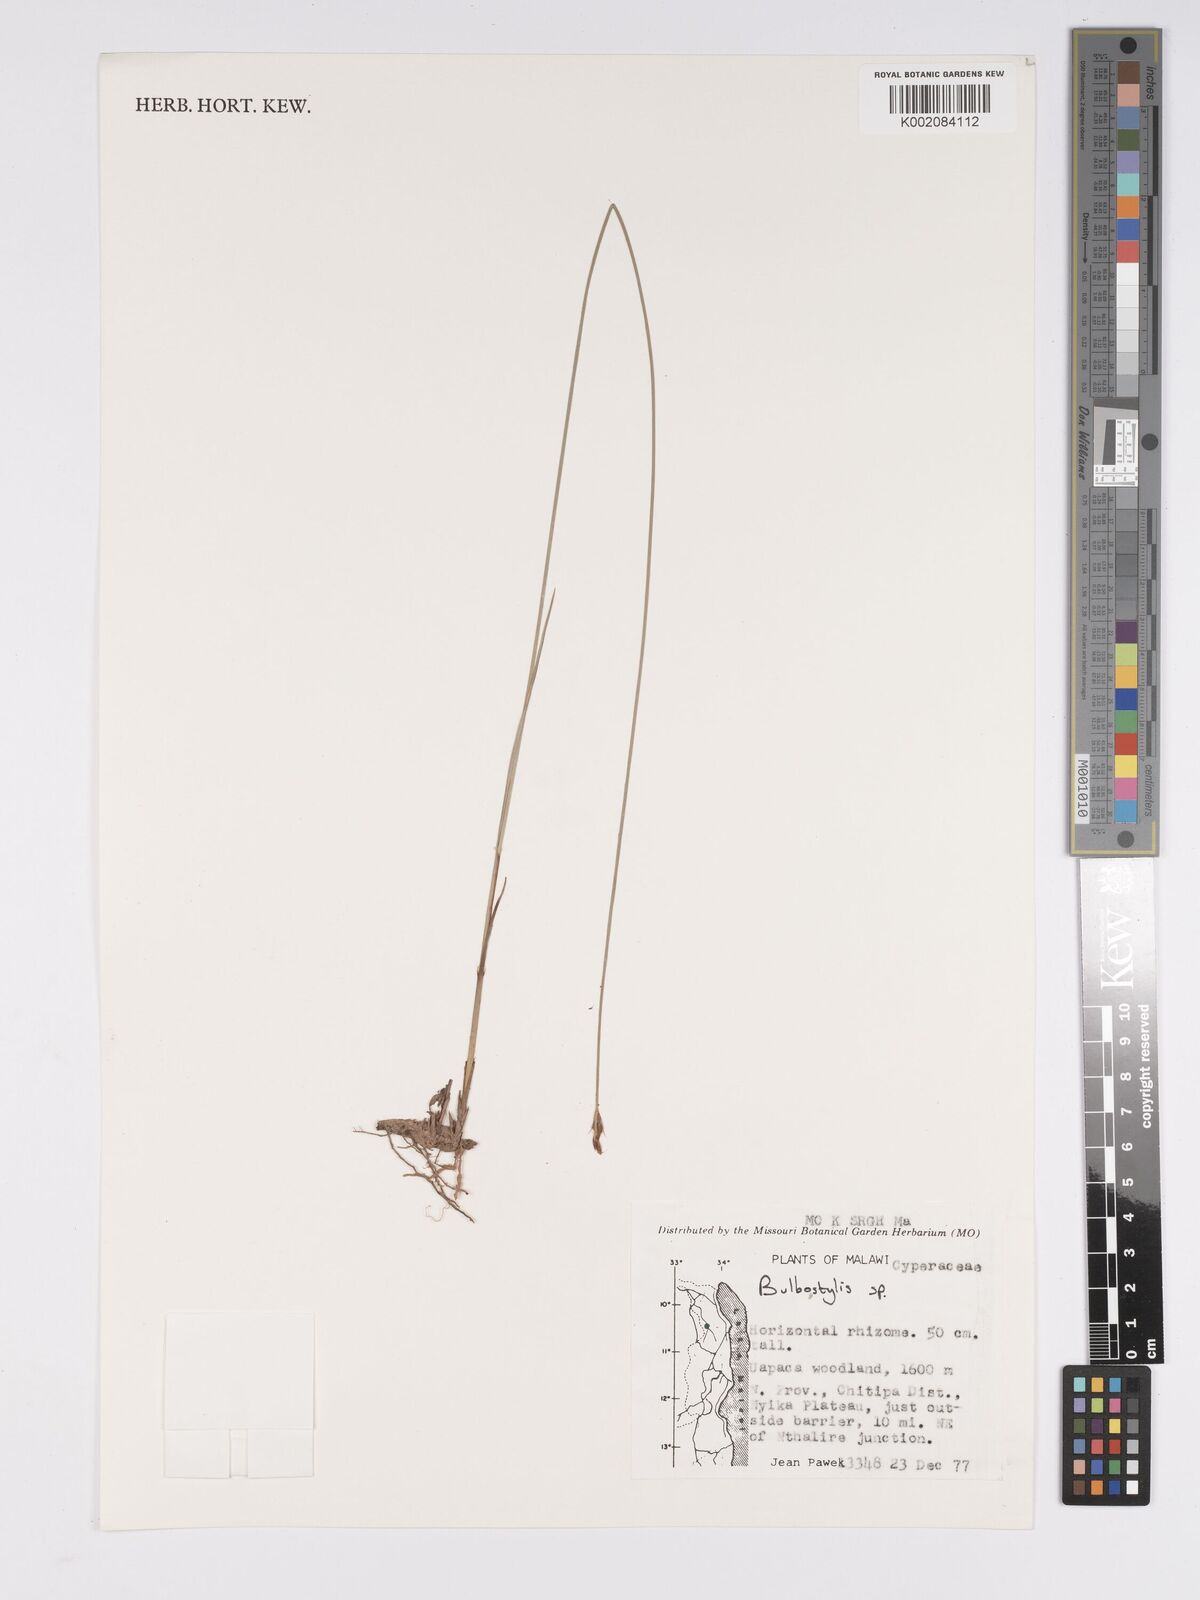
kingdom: Plantae
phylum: Tracheophyta
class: Liliopsida
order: Poales
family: Cyperaceae
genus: Bulbostylis
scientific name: Bulbostylis
